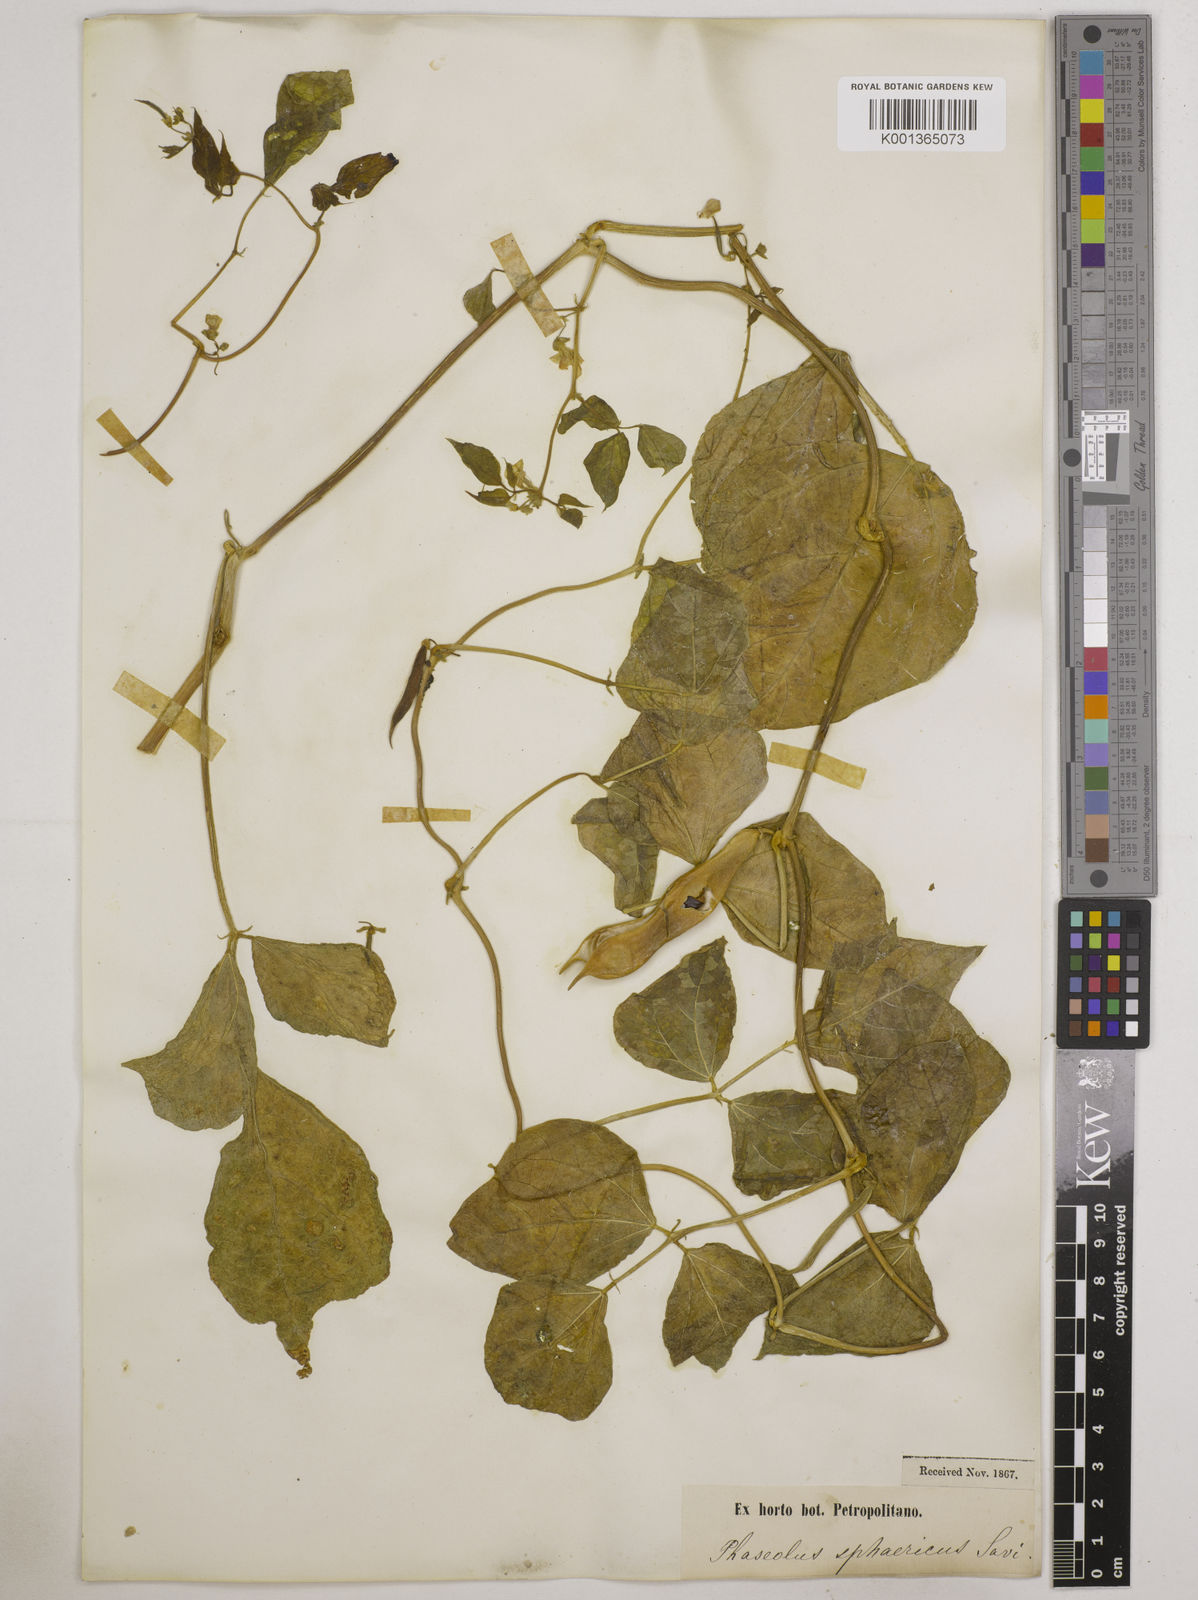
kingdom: Plantae
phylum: Tracheophyta
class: Magnoliopsida
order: Fabales
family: Fabaceae
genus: Phaseolus
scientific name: Phaseolus vulgaris
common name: Bean
